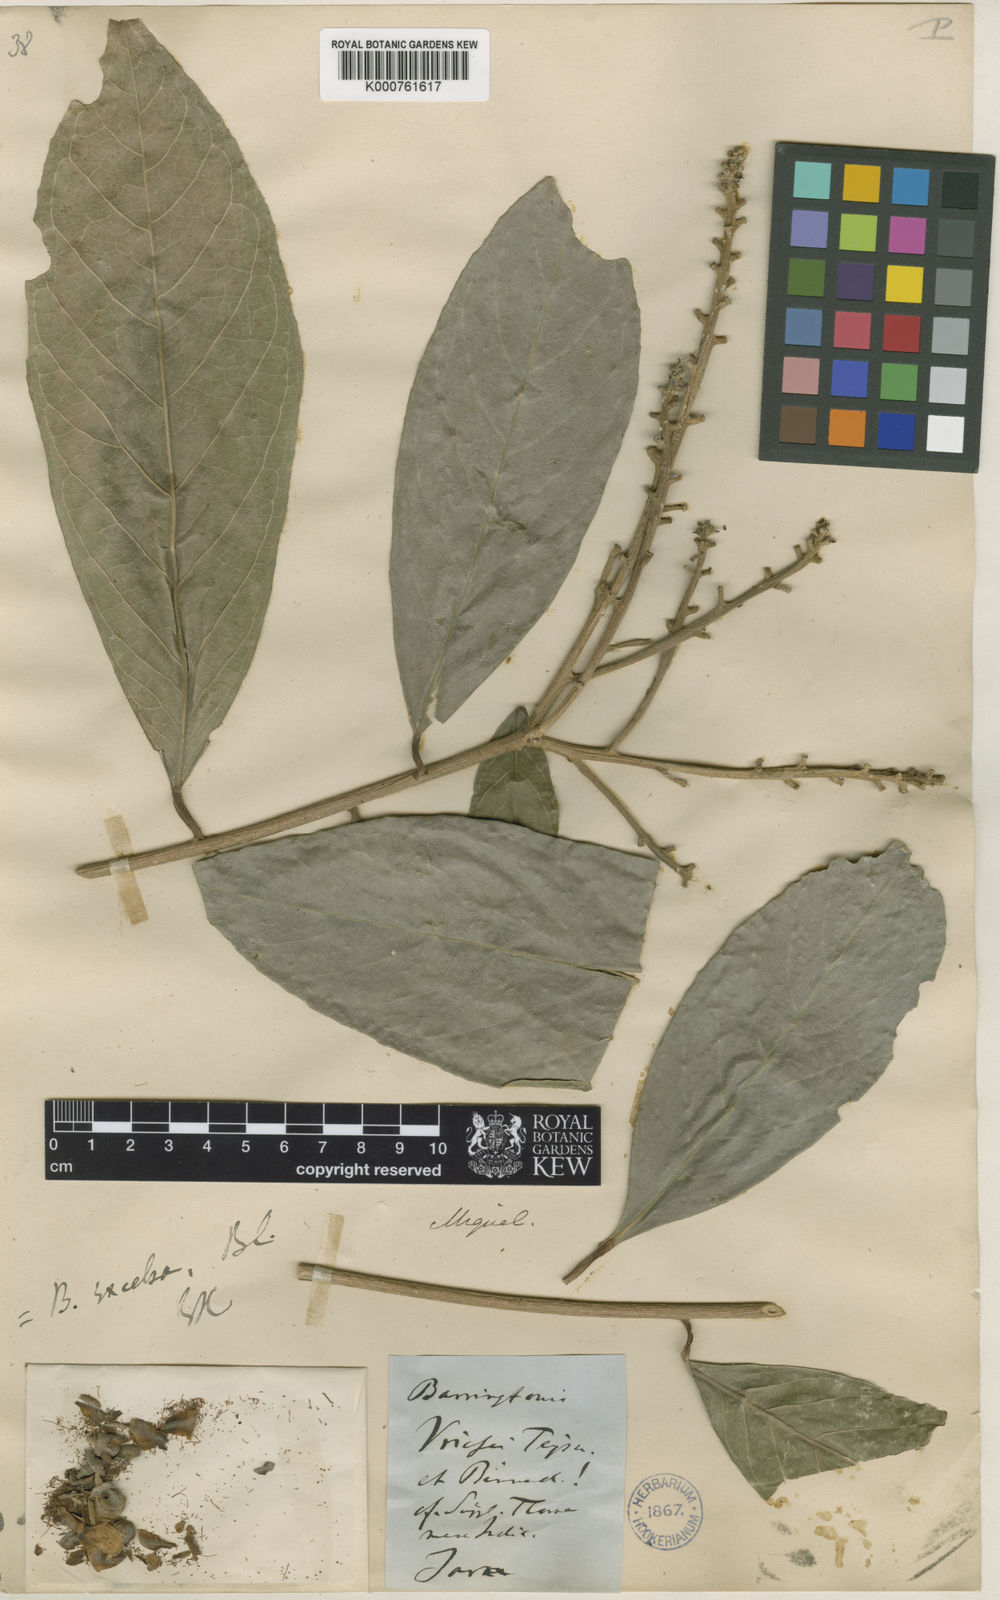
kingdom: Plantae
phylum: Tracheophyta
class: Magnoliopsida
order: Ericales
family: Lecythidaceae
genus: Chydenanthus
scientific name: Chydenanthus excelsus
